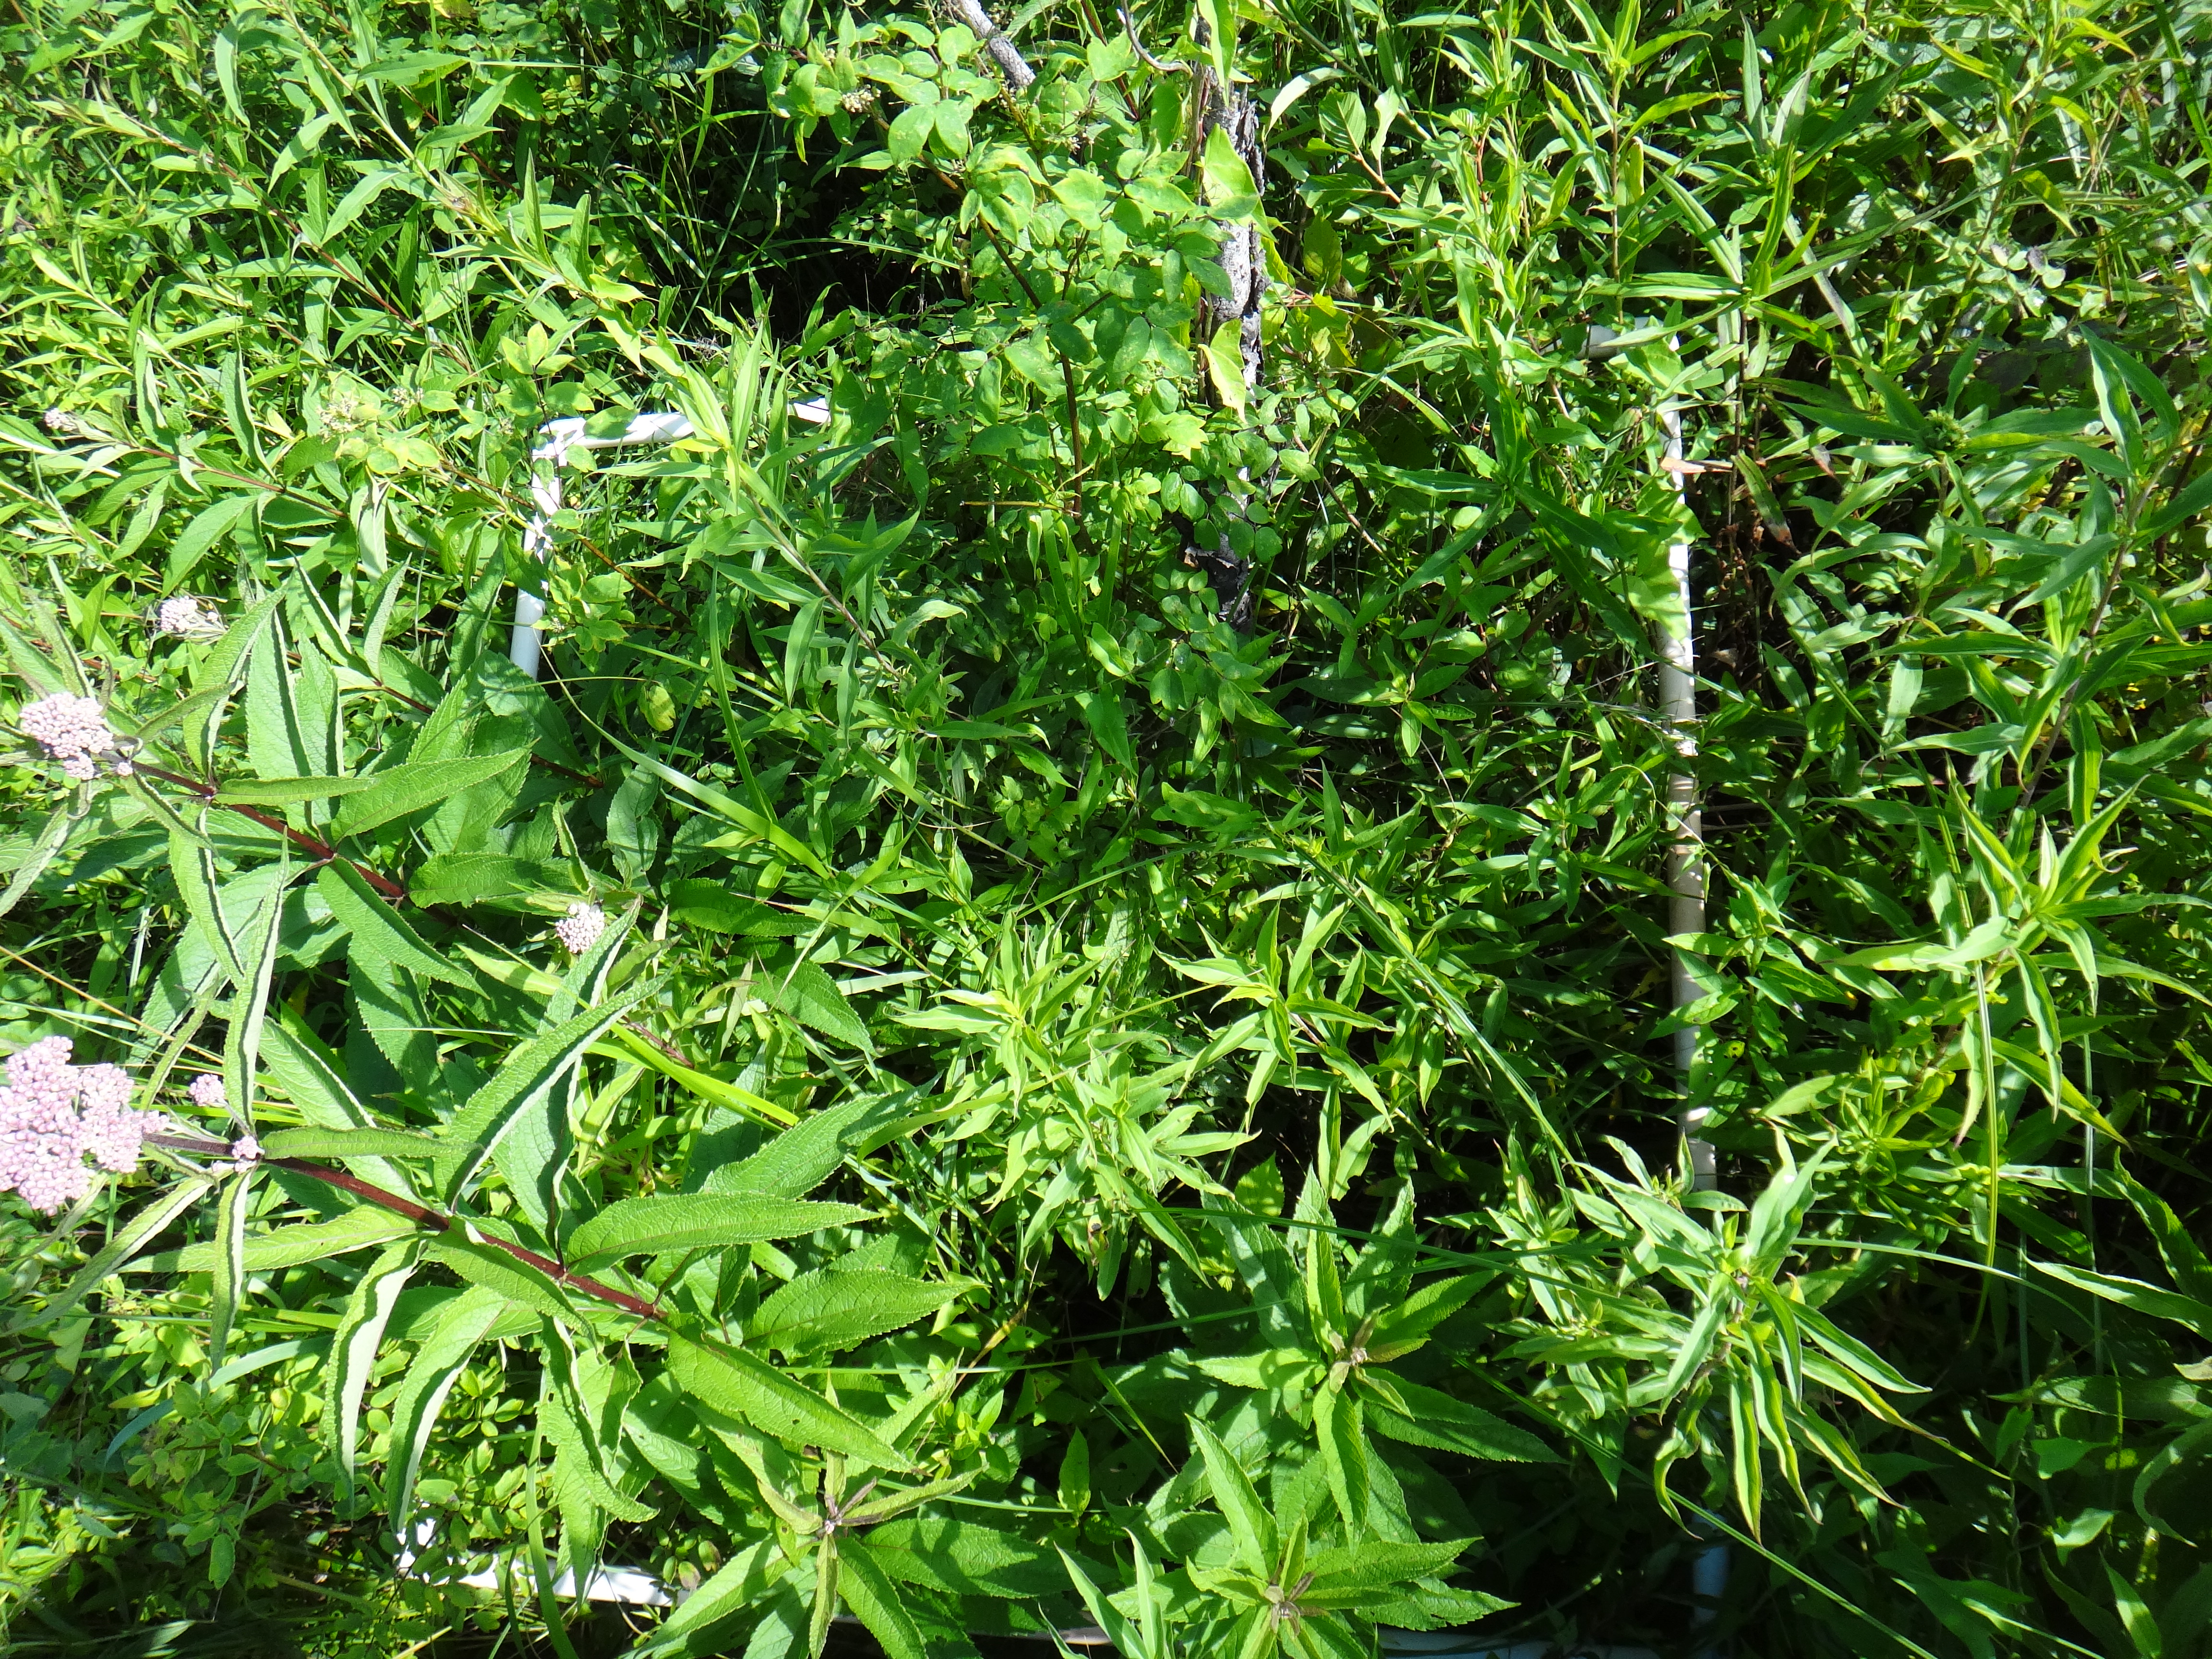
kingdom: Plantae
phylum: Tracheophyta
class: Liliopsida
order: Alismatales
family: Araceae
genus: Symplocarpus
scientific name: Symplocarpus foetidus
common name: Eastern skunk cabbage
